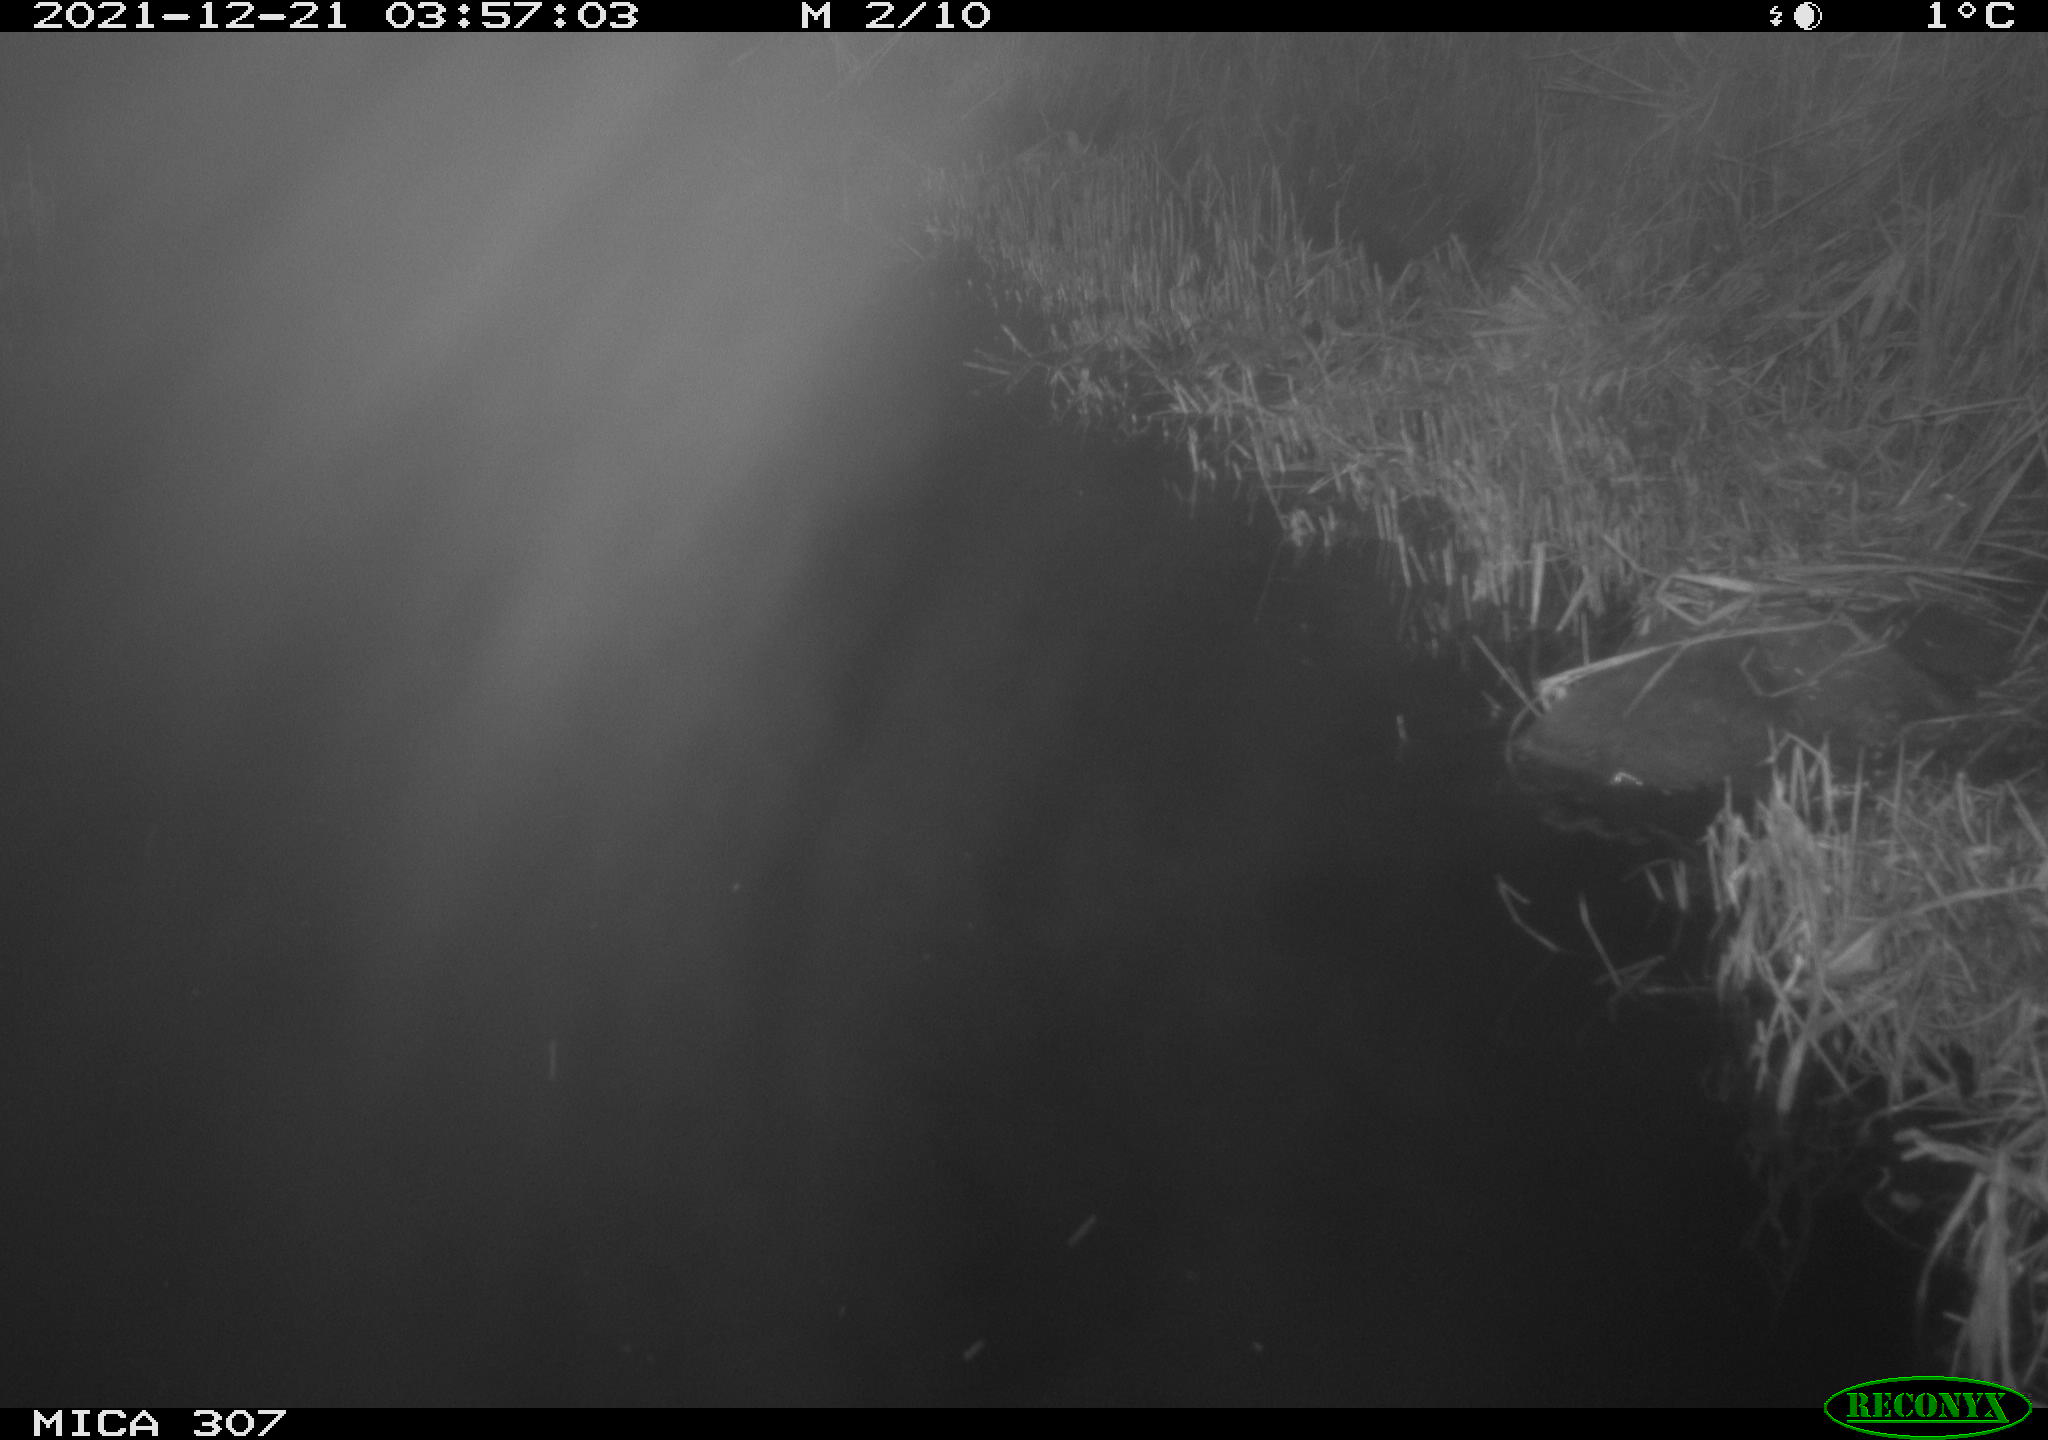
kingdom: Animalia
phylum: Chordata
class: Mammalia
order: Rodentia
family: Muridae
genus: Rattus
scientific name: Rattus norvegicus
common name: Brown rat
